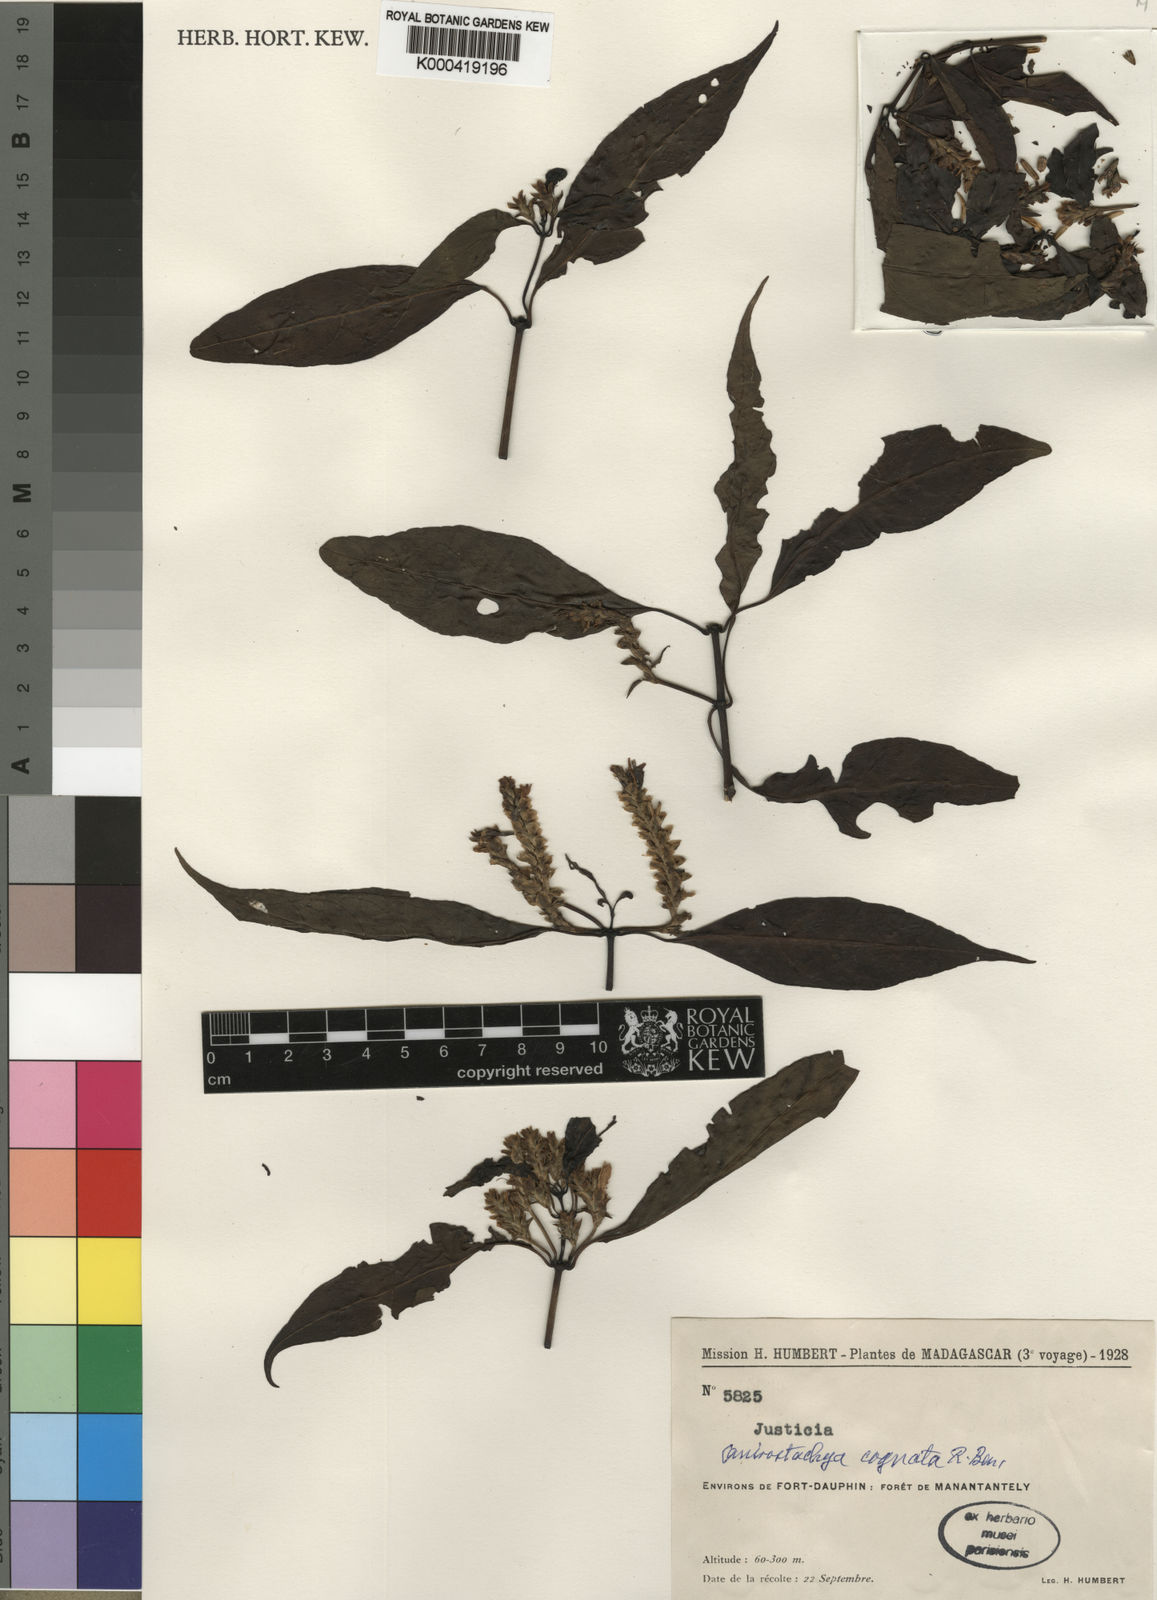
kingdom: Plantae
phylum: Tracheophyta
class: Magnoliopsida
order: Lamiales
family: Acanthaceae
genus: Justicia
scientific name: Justicia
